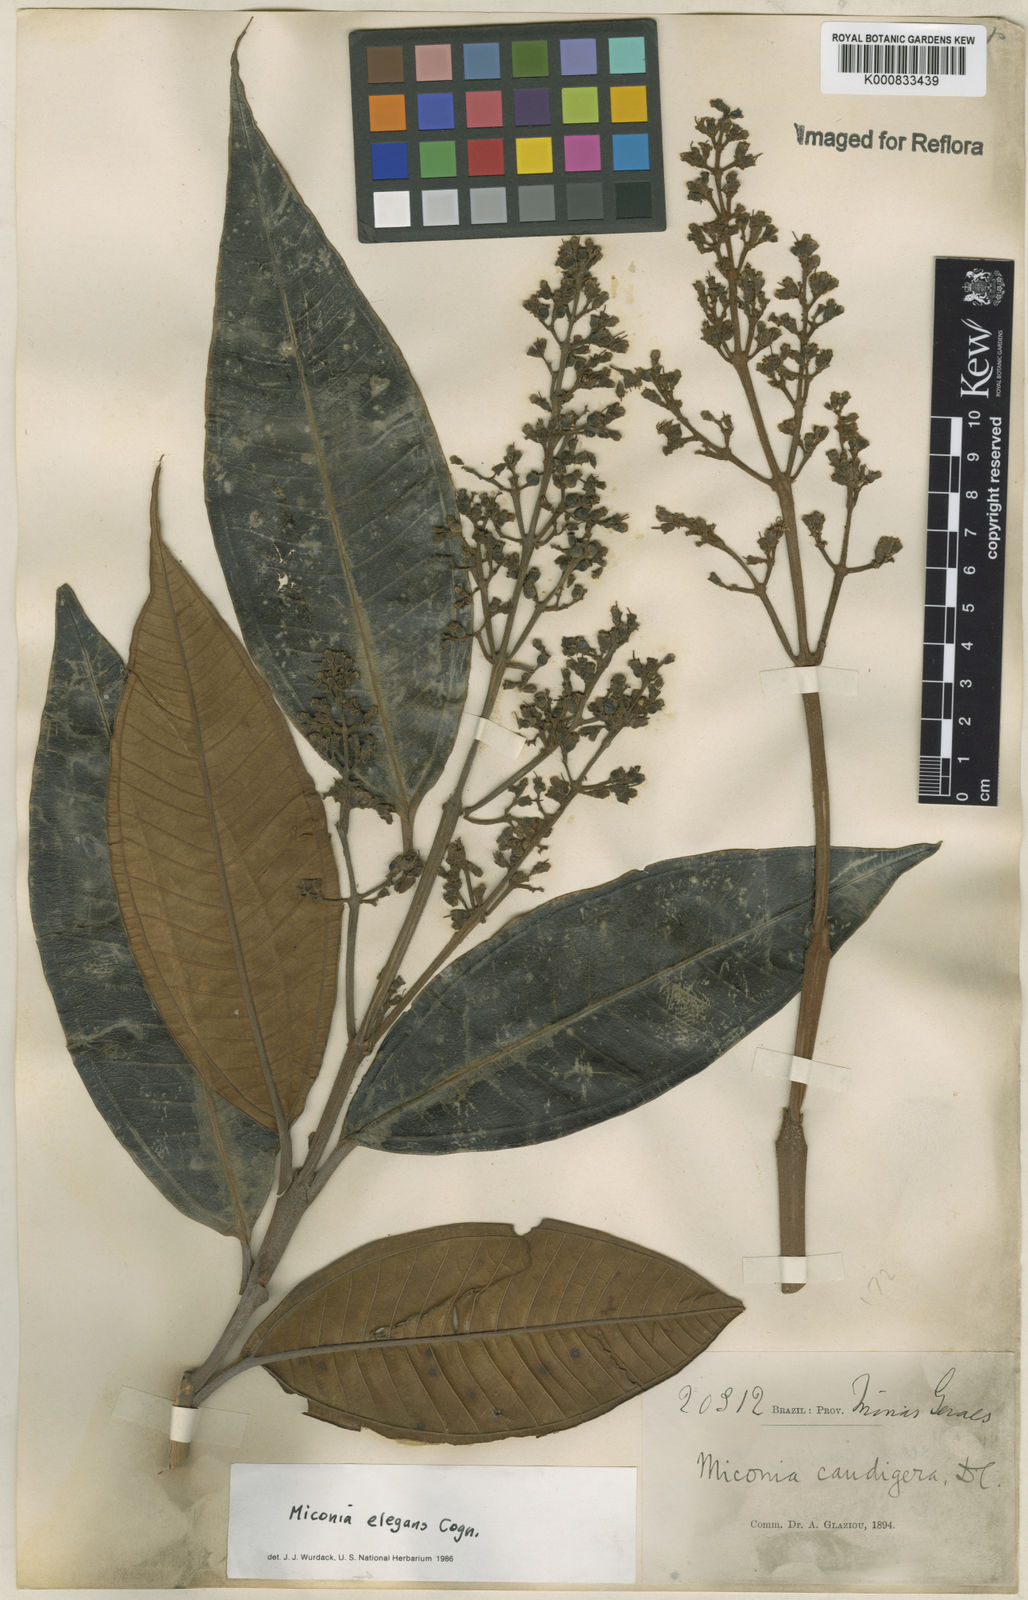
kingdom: Plantae
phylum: Tracheophyta
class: Magnoliopsida
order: Myrtales
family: Melastomataceae
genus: Miconia
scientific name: Miconia elegans
